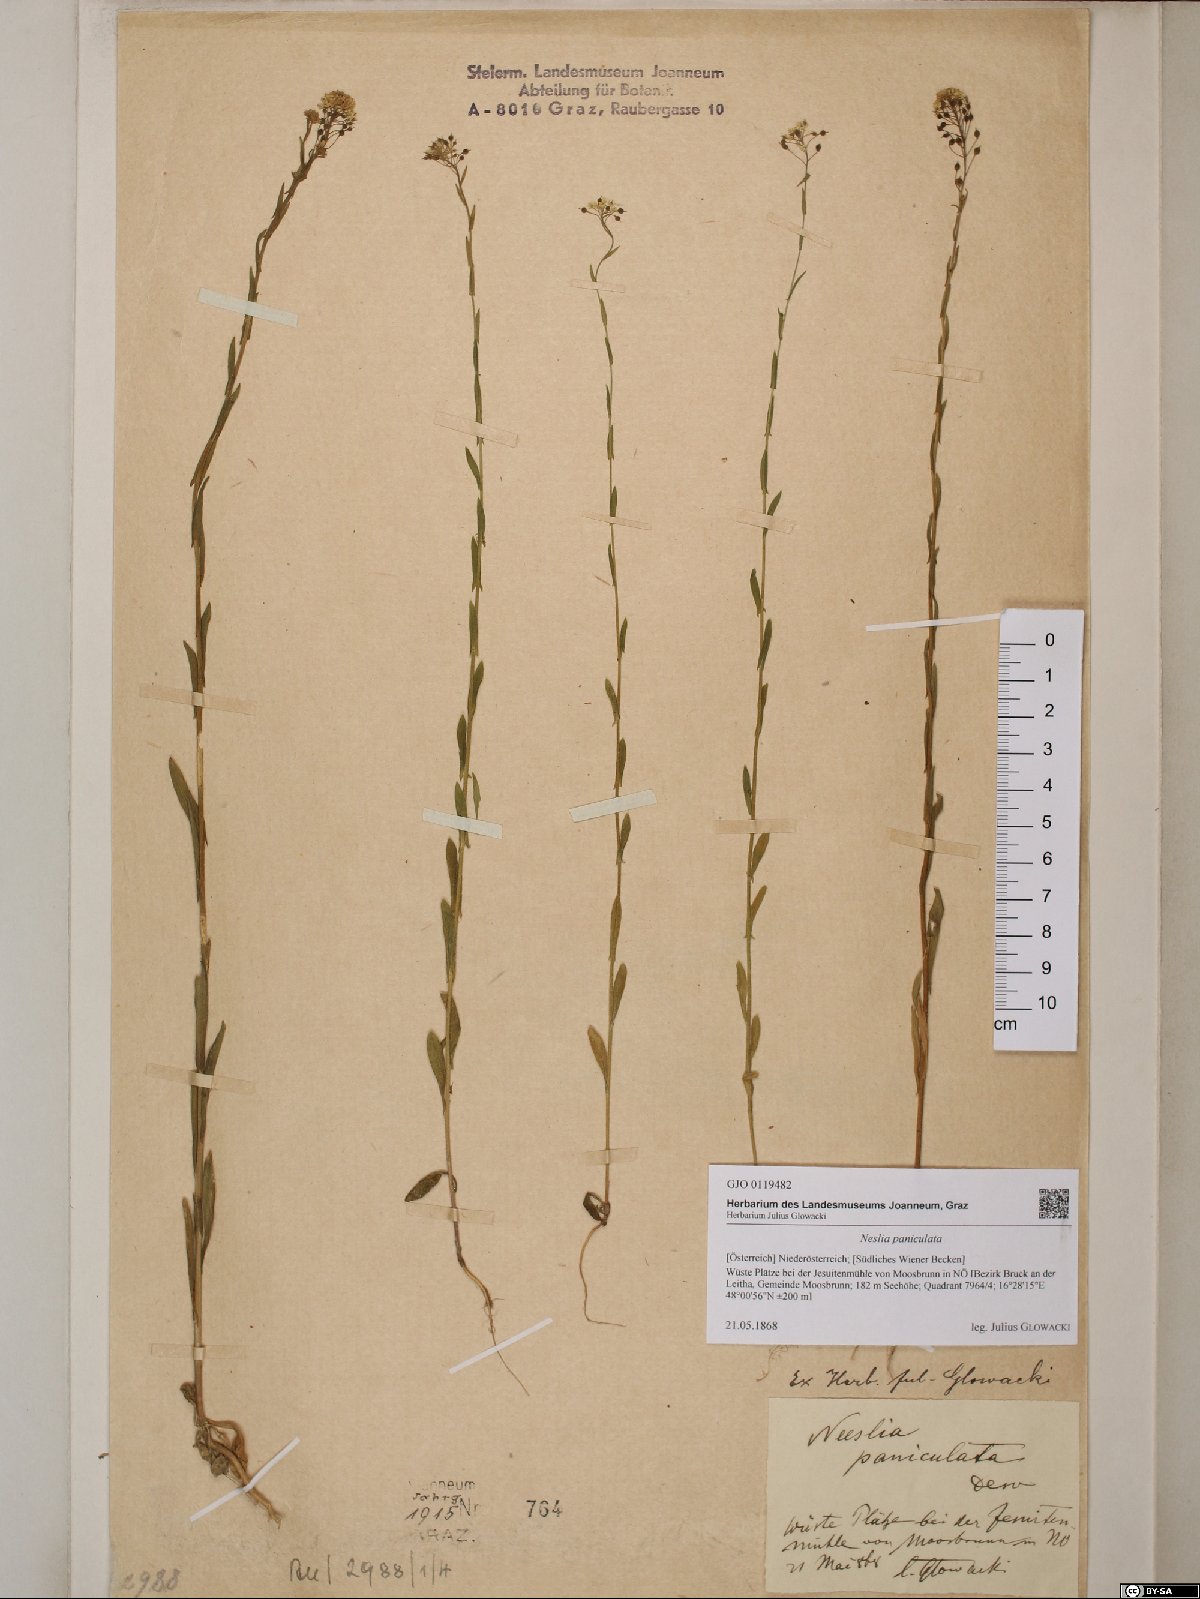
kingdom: Plantae
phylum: Tracheophyta
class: Magnoliopsida
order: Brassicales
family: Brassicaceae
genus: Neslia
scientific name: Neslia paniculata
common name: Ball mustard
